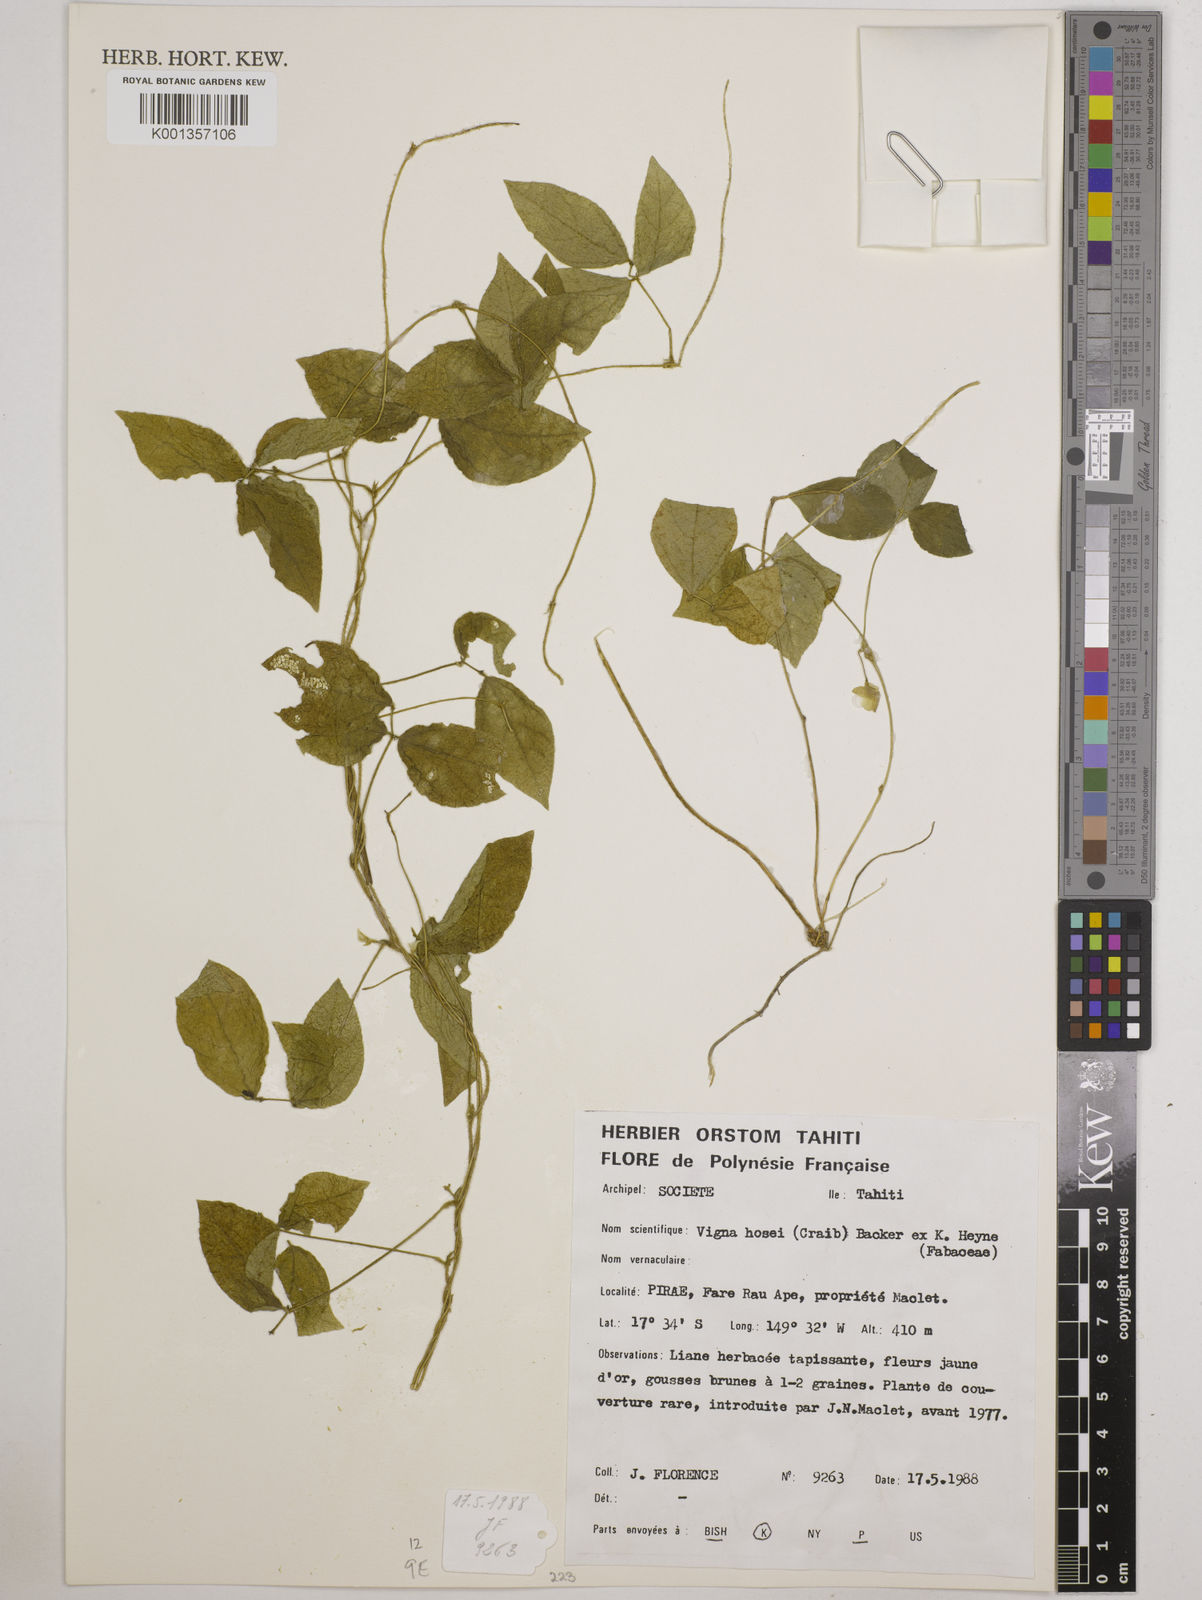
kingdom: Plantae
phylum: Tracheophyta
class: Magnoliopsida
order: Fabales
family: Fabaceae
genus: Vigna
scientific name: Vigna hosei
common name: Sarawak-bean
